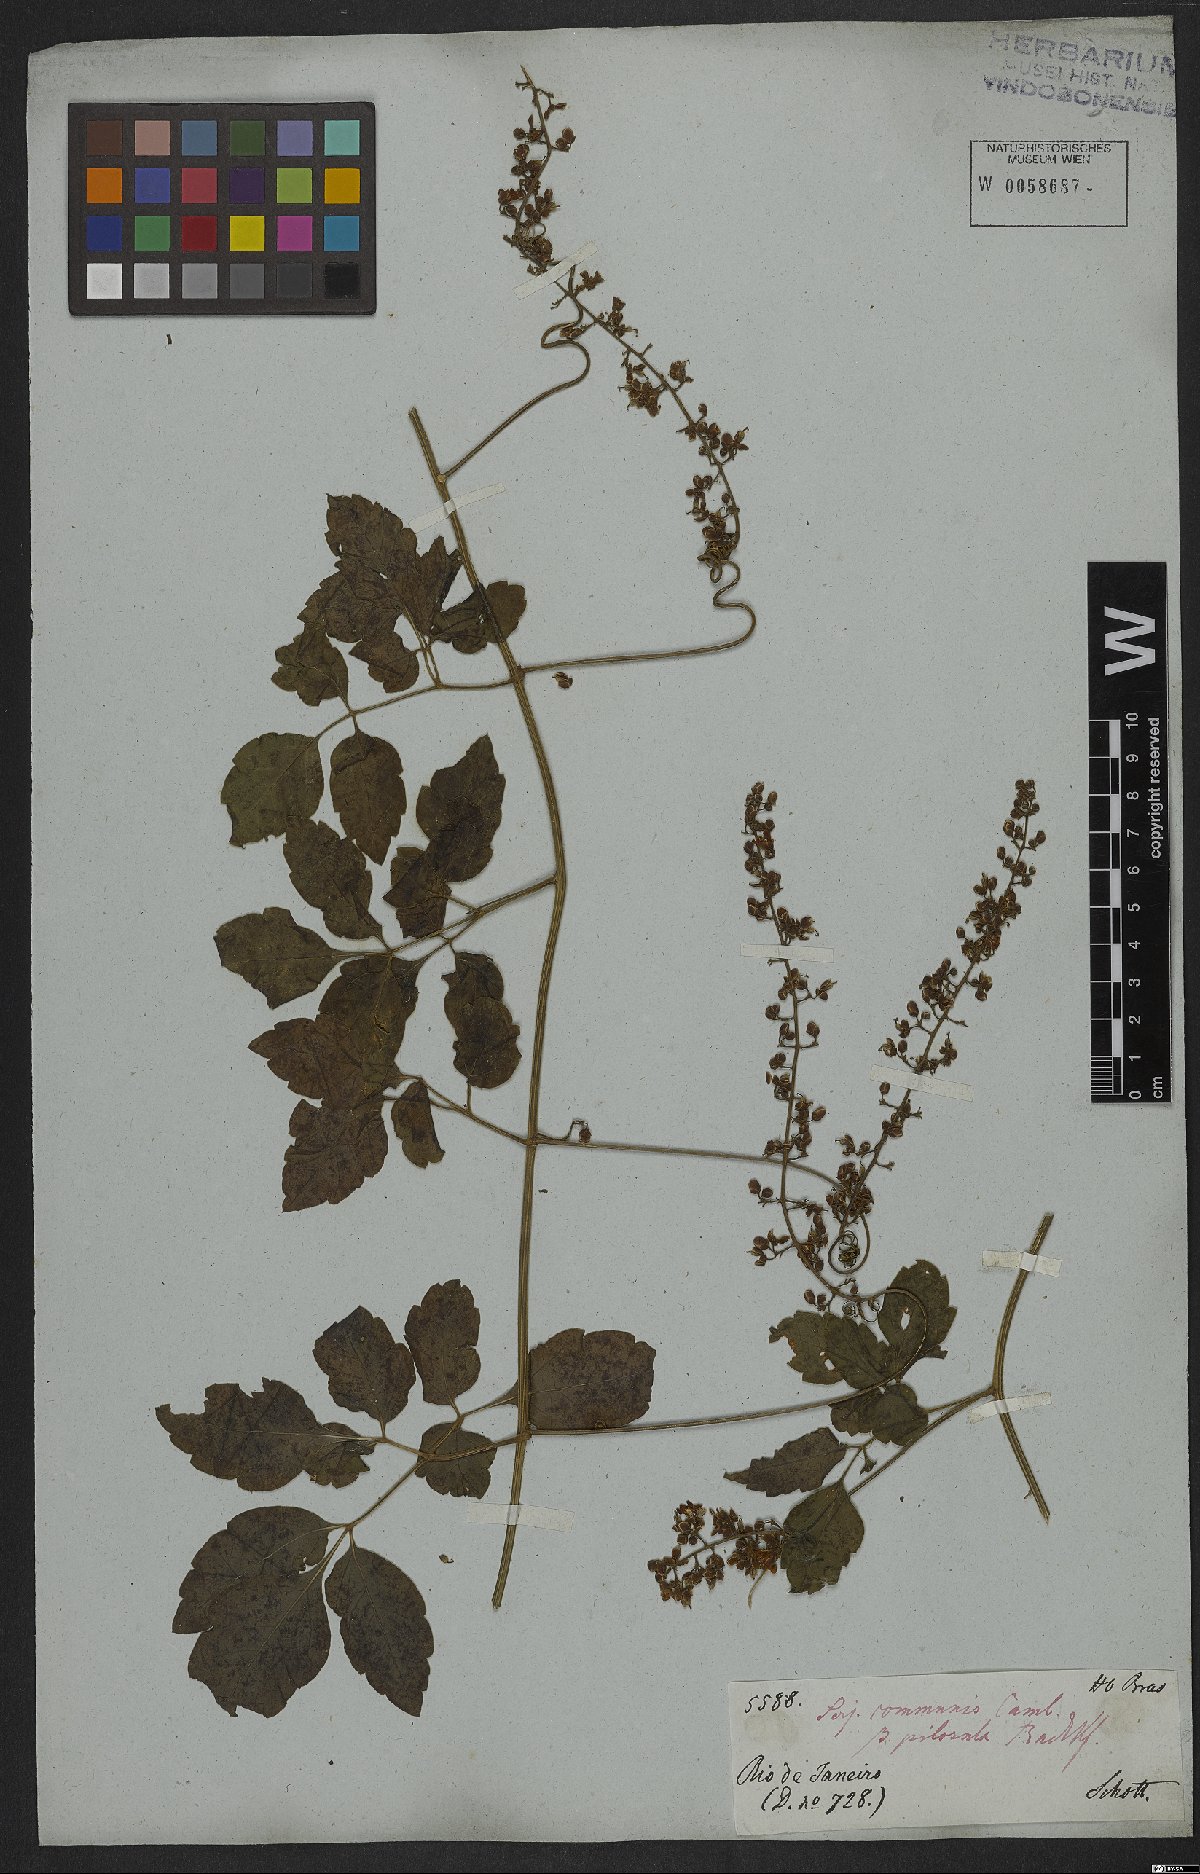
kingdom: Plantae
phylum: Tracheophyta
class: Magnoliopsida
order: Sapindales
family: Sapindaceae
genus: Serjania
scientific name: Serjania communis
